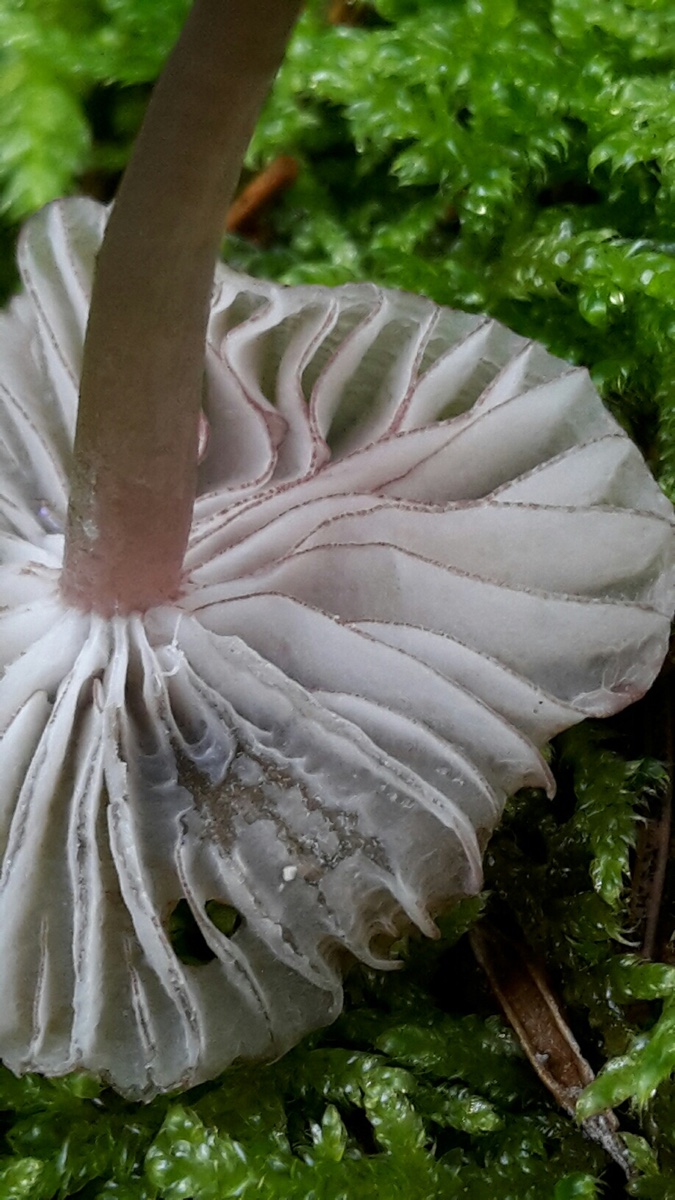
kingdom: Fungi
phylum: Basidiomycota
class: Agaricomycetes
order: Agaricales
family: Mycenaceae
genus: Mycena
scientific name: Mycena rubromarginata
